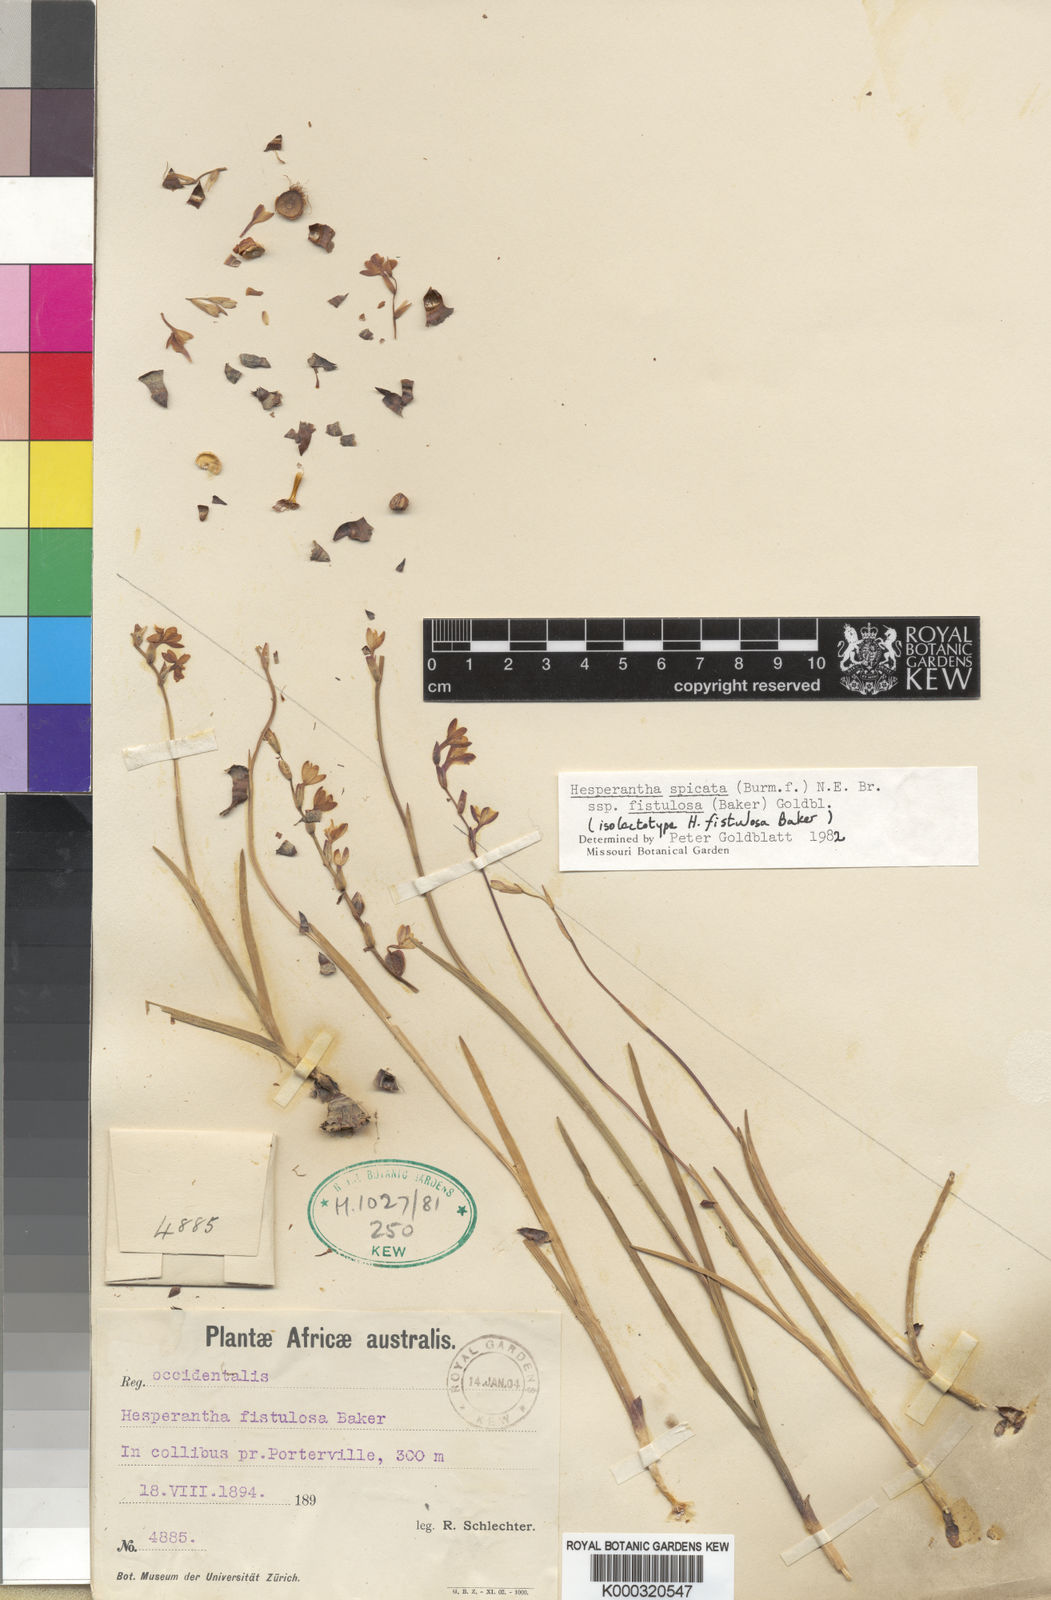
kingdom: Plantae
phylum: Tracheophyta
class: Liliopsida
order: Asparagales
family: Iridaceae
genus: Hesperantha
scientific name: Hesperantha spicata
